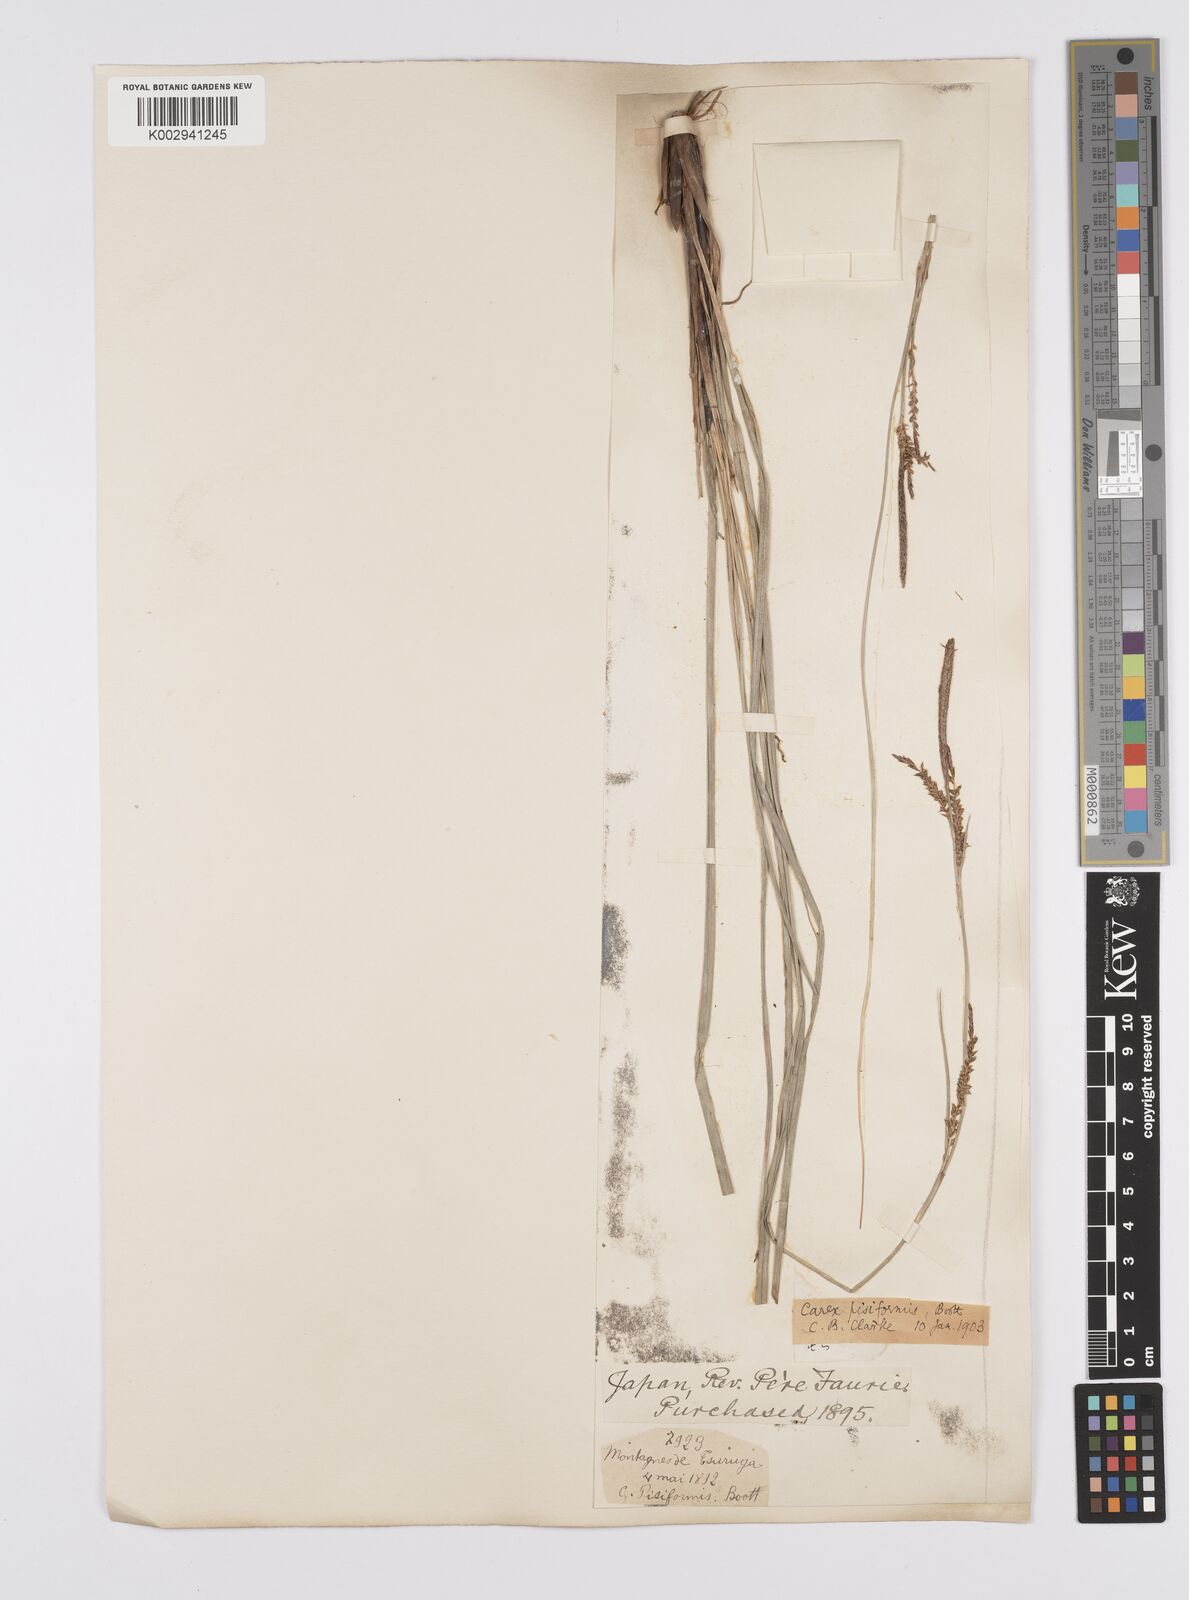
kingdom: Plantae
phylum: Tracheophyta
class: Liliopsida
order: Poales
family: Cyperaceae
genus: Carex
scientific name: Carex pisiformis
